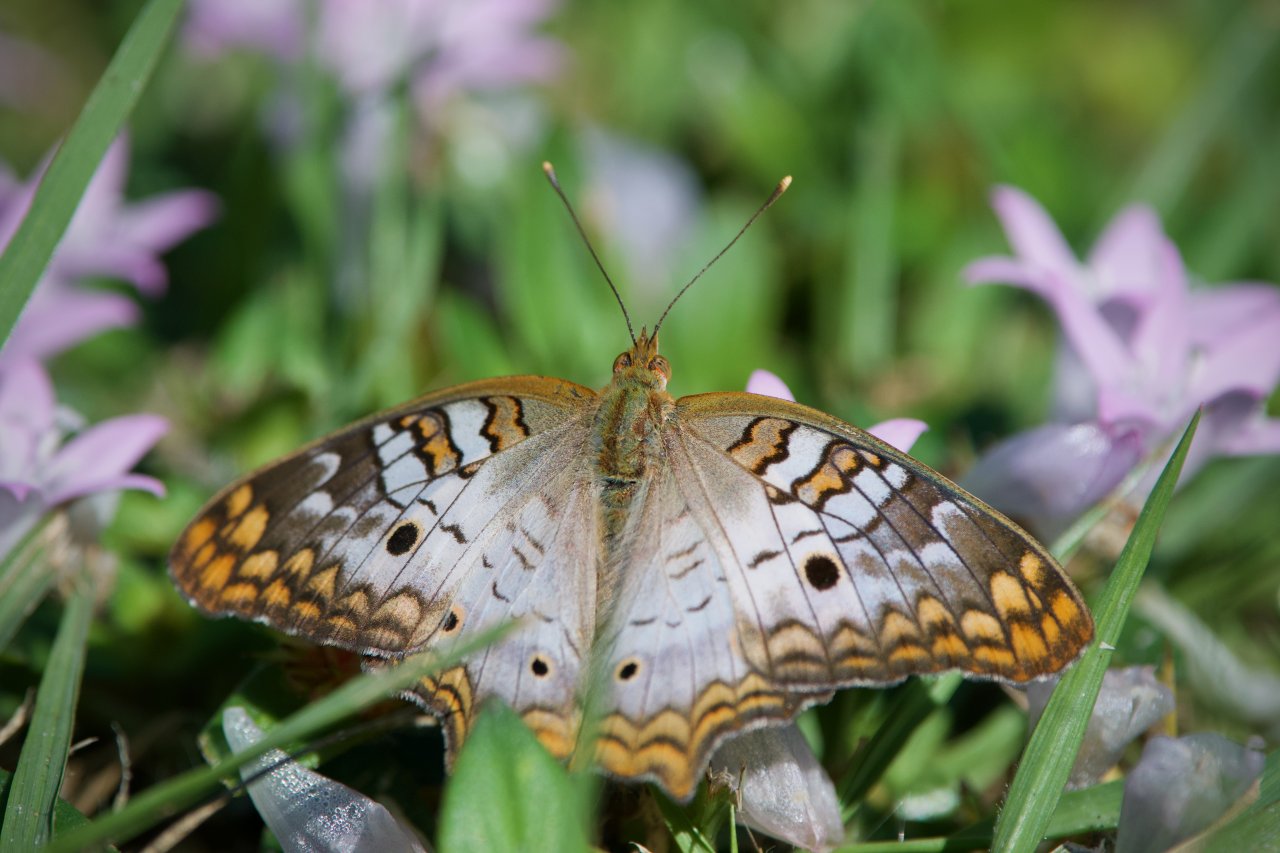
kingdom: Animalia
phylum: Arthropoda
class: Insecta
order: Lepidoptera
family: Nymphalidae
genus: Anartia
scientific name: Anartia jatrophae
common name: White Peacock
